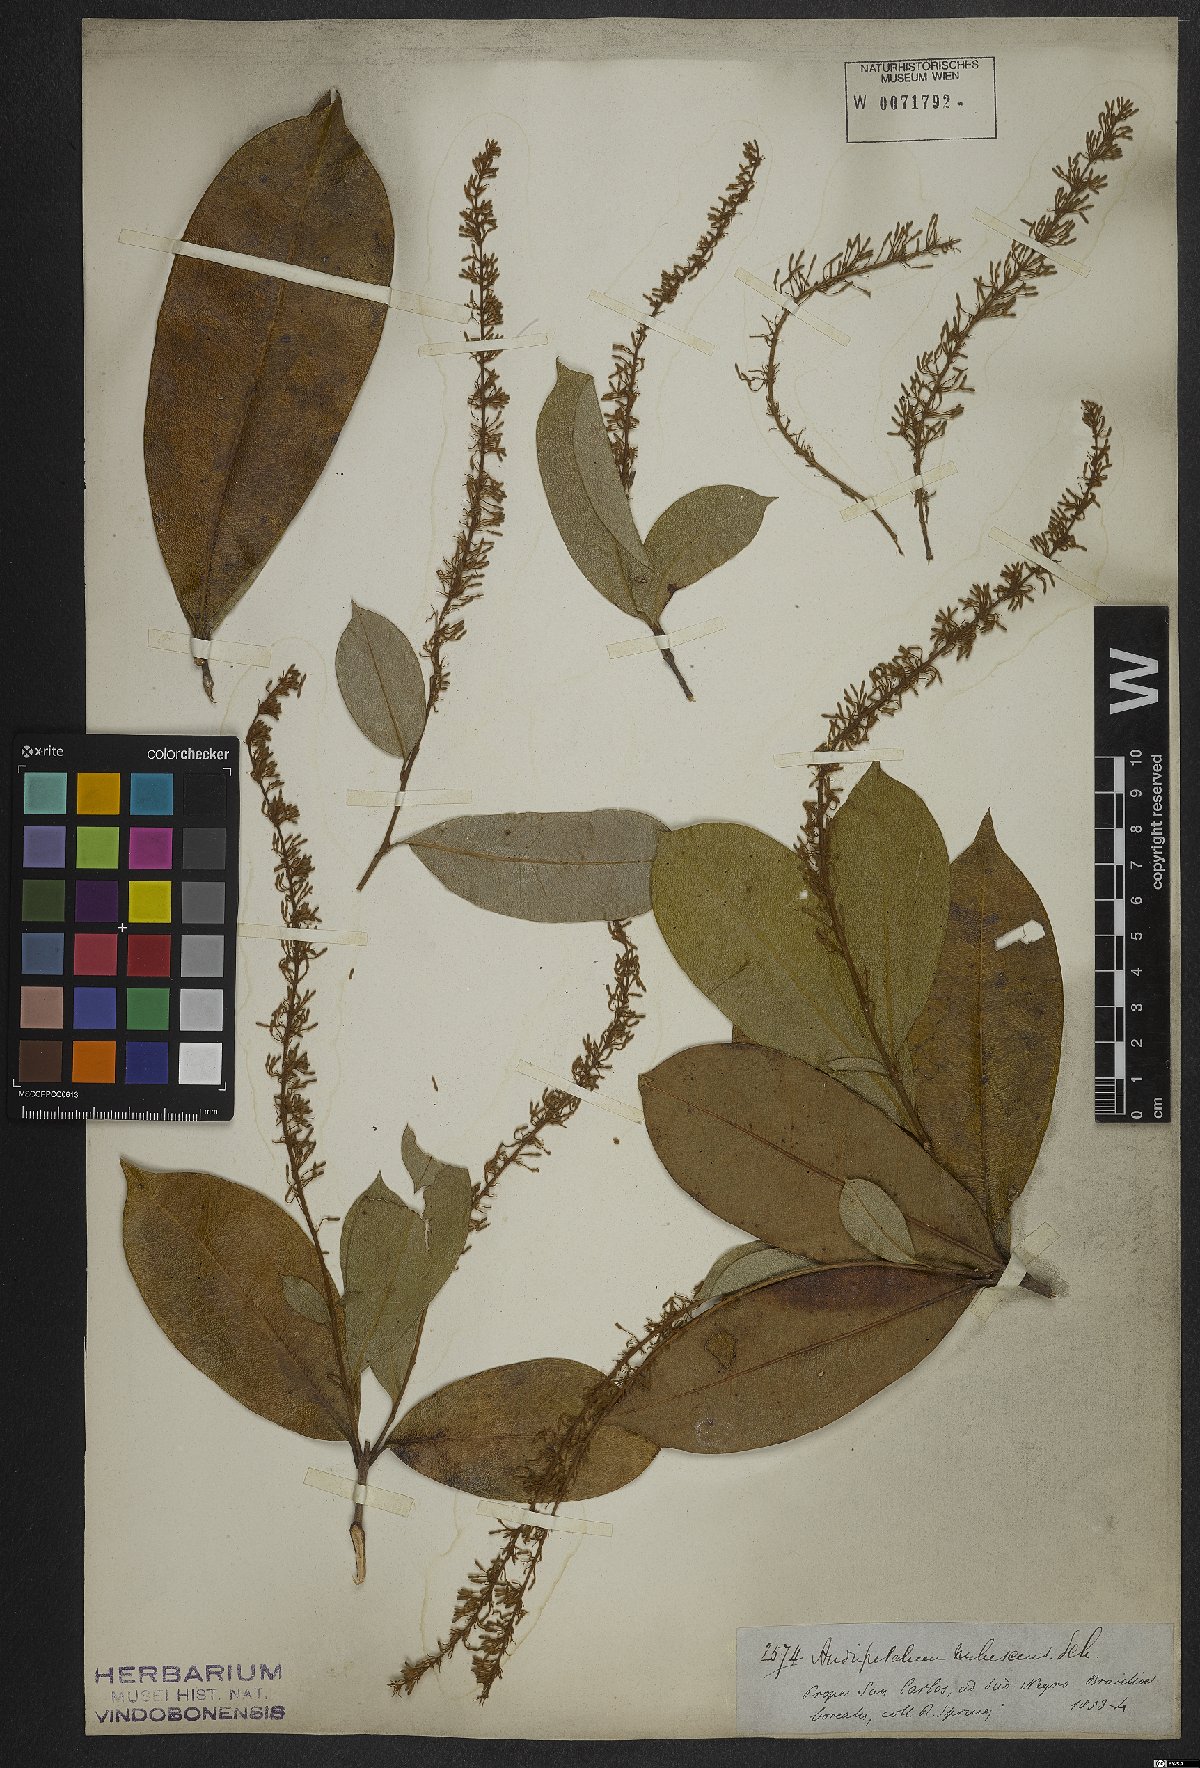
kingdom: Plantae
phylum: Tracheophyta
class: Magnoliopsida
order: Proteales
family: Proteaceae
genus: Panopsis
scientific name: Panopsis rubescens
